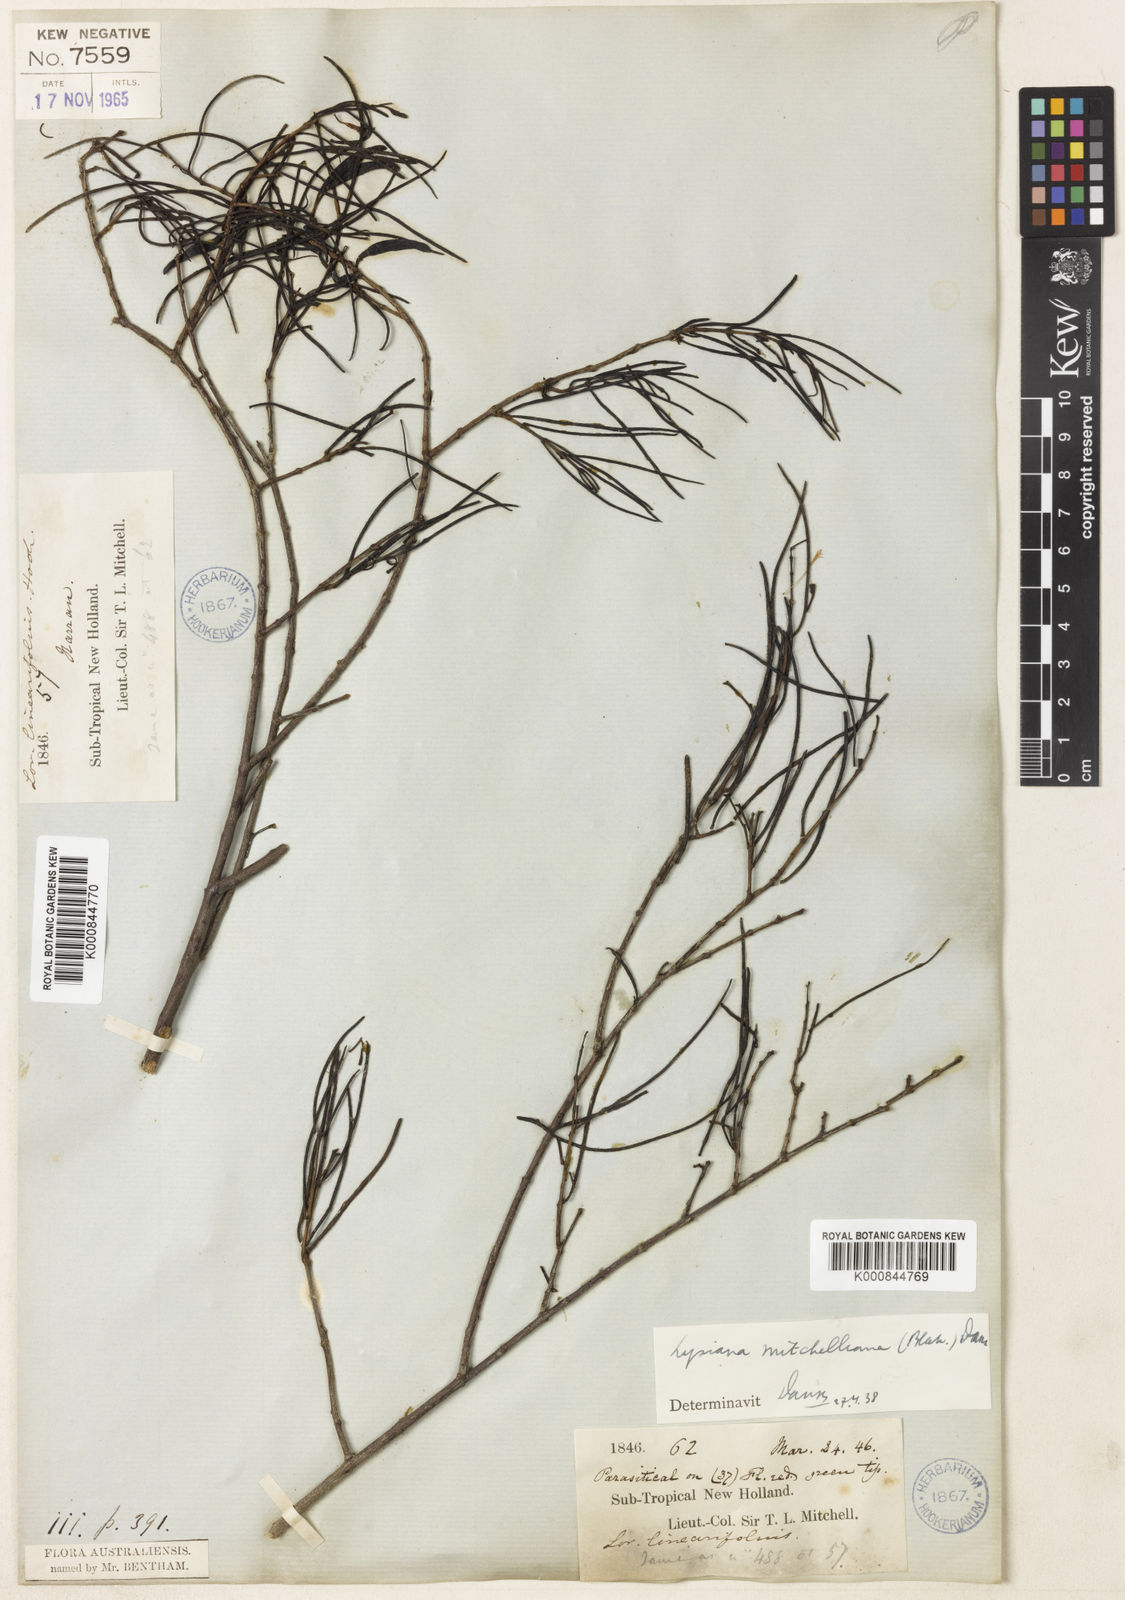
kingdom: Plantae
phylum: Tracheophyta
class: Magnoliopsida
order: Santalales
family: Loranthaceae
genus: Lysiana
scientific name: Lysiana linearifolia
